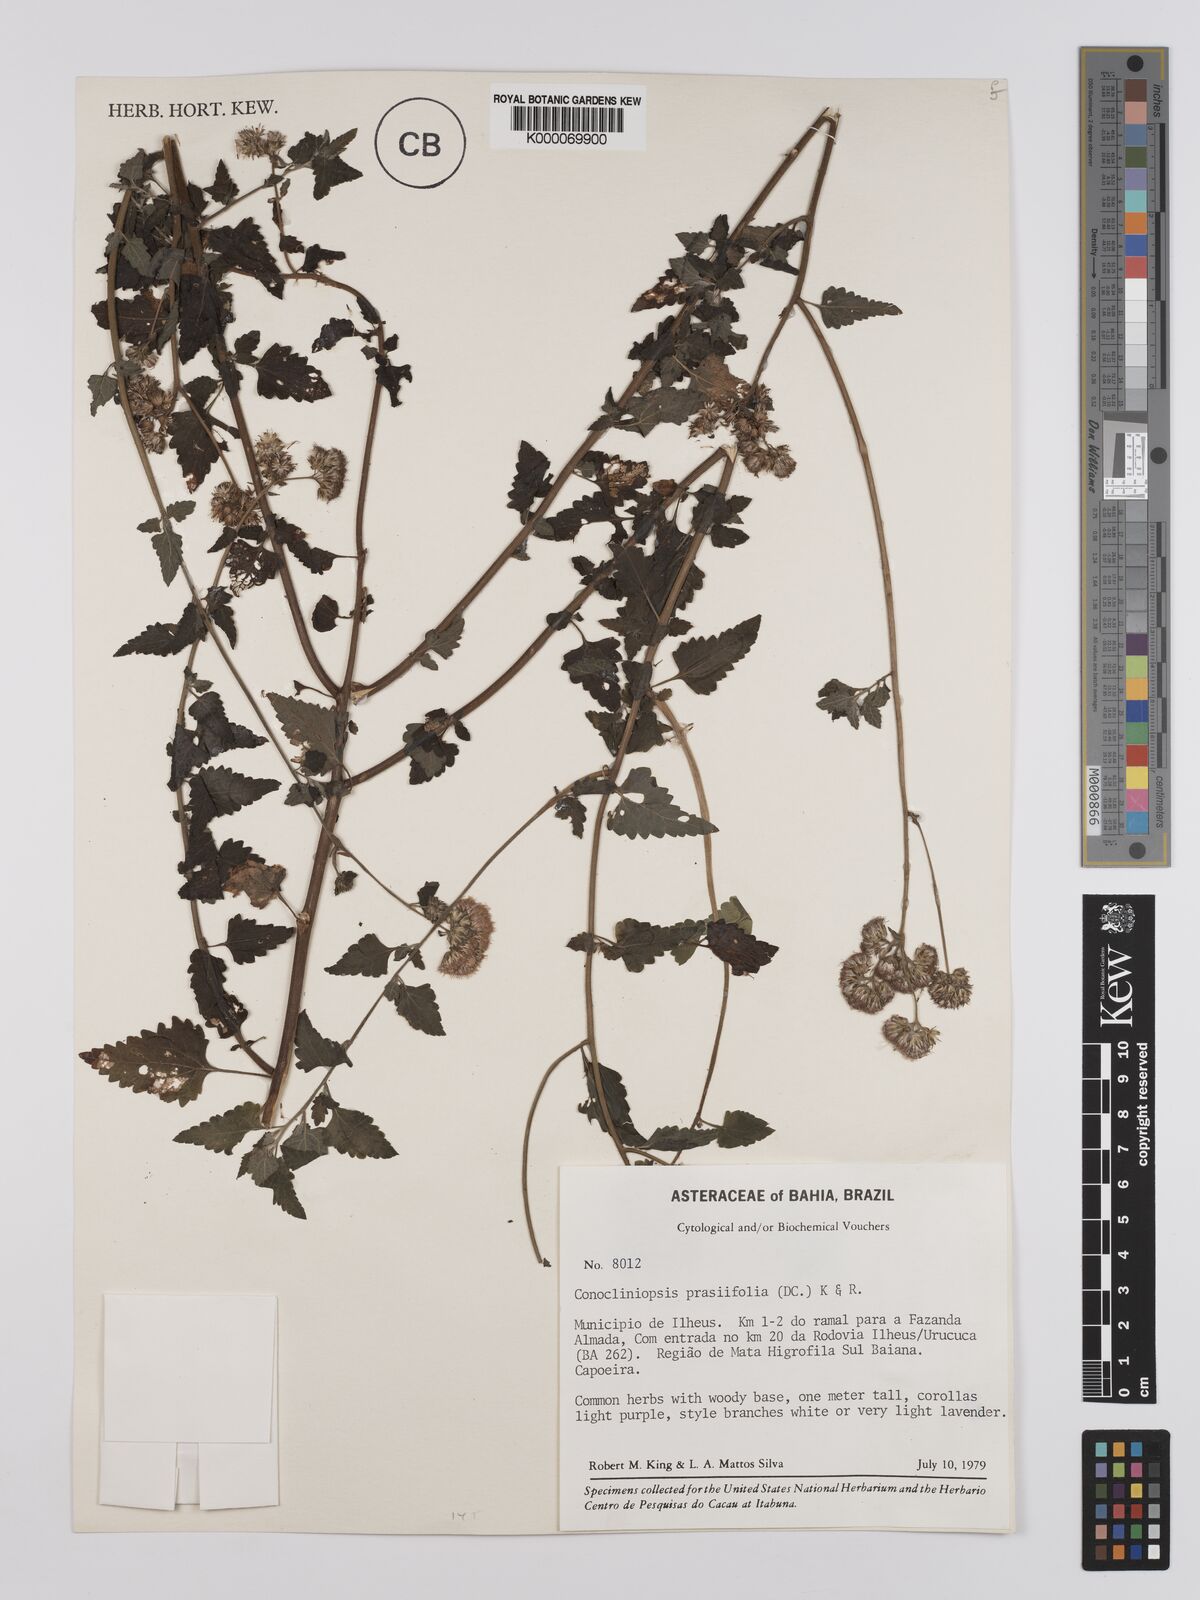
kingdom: Plantae
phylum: Tracheophyta
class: Magnoliopsida
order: Asterales
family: Asteraceae
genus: Conocliniopsis
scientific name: Conocliniopsis grossedentata
